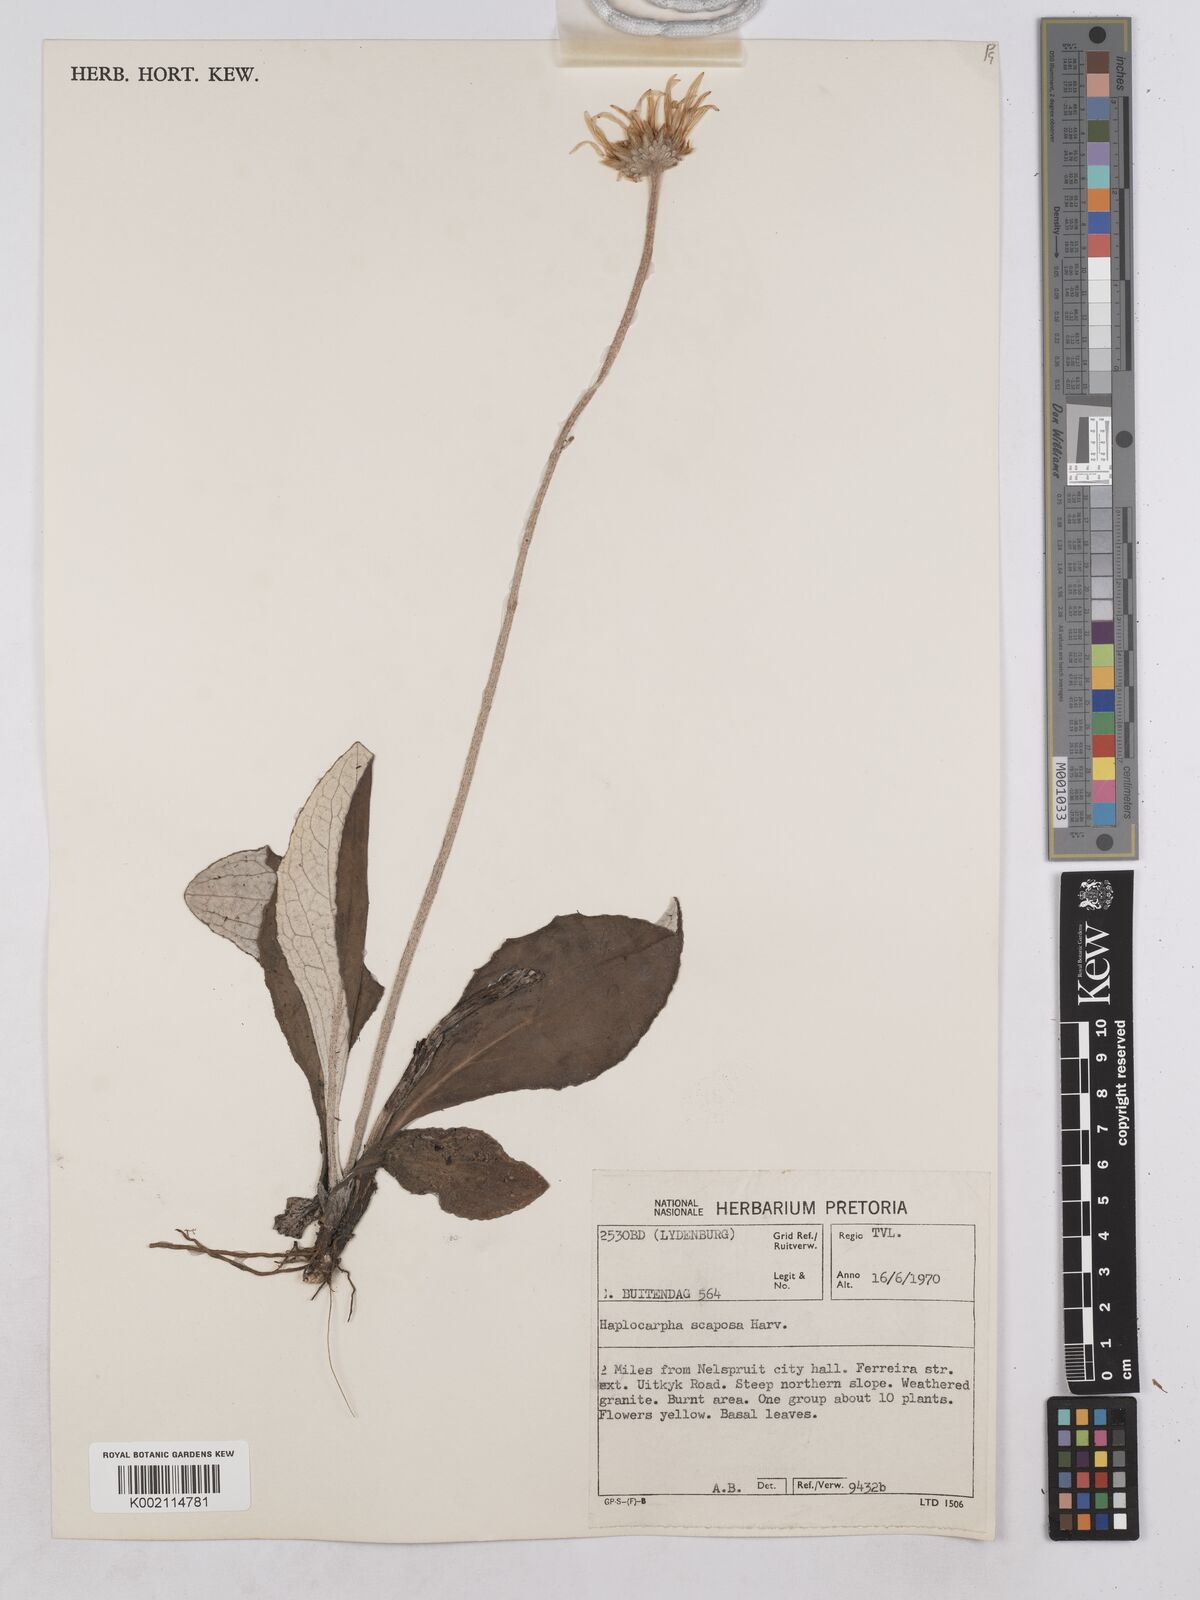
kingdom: Plantae
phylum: Tracheophyta
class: Magnoliopsida
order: Asterales
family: Asteraceae
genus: Haplocarpha
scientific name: Haplocarpha scaposa
